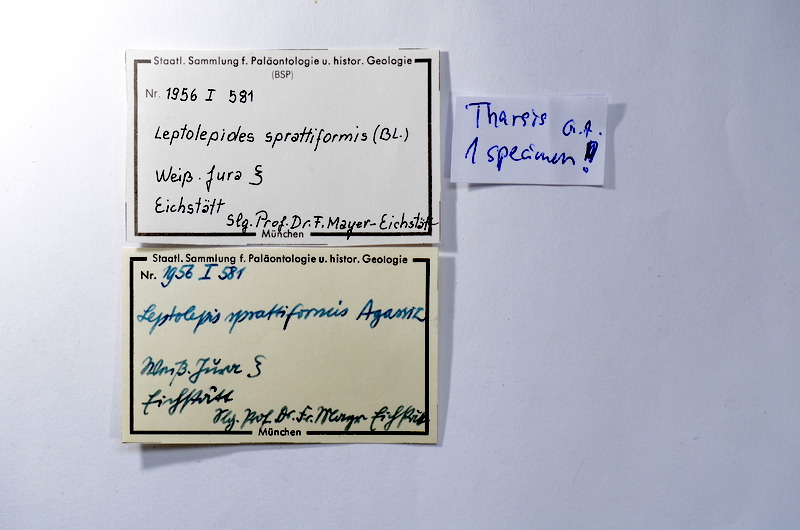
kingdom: Animalia
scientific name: Animalia
